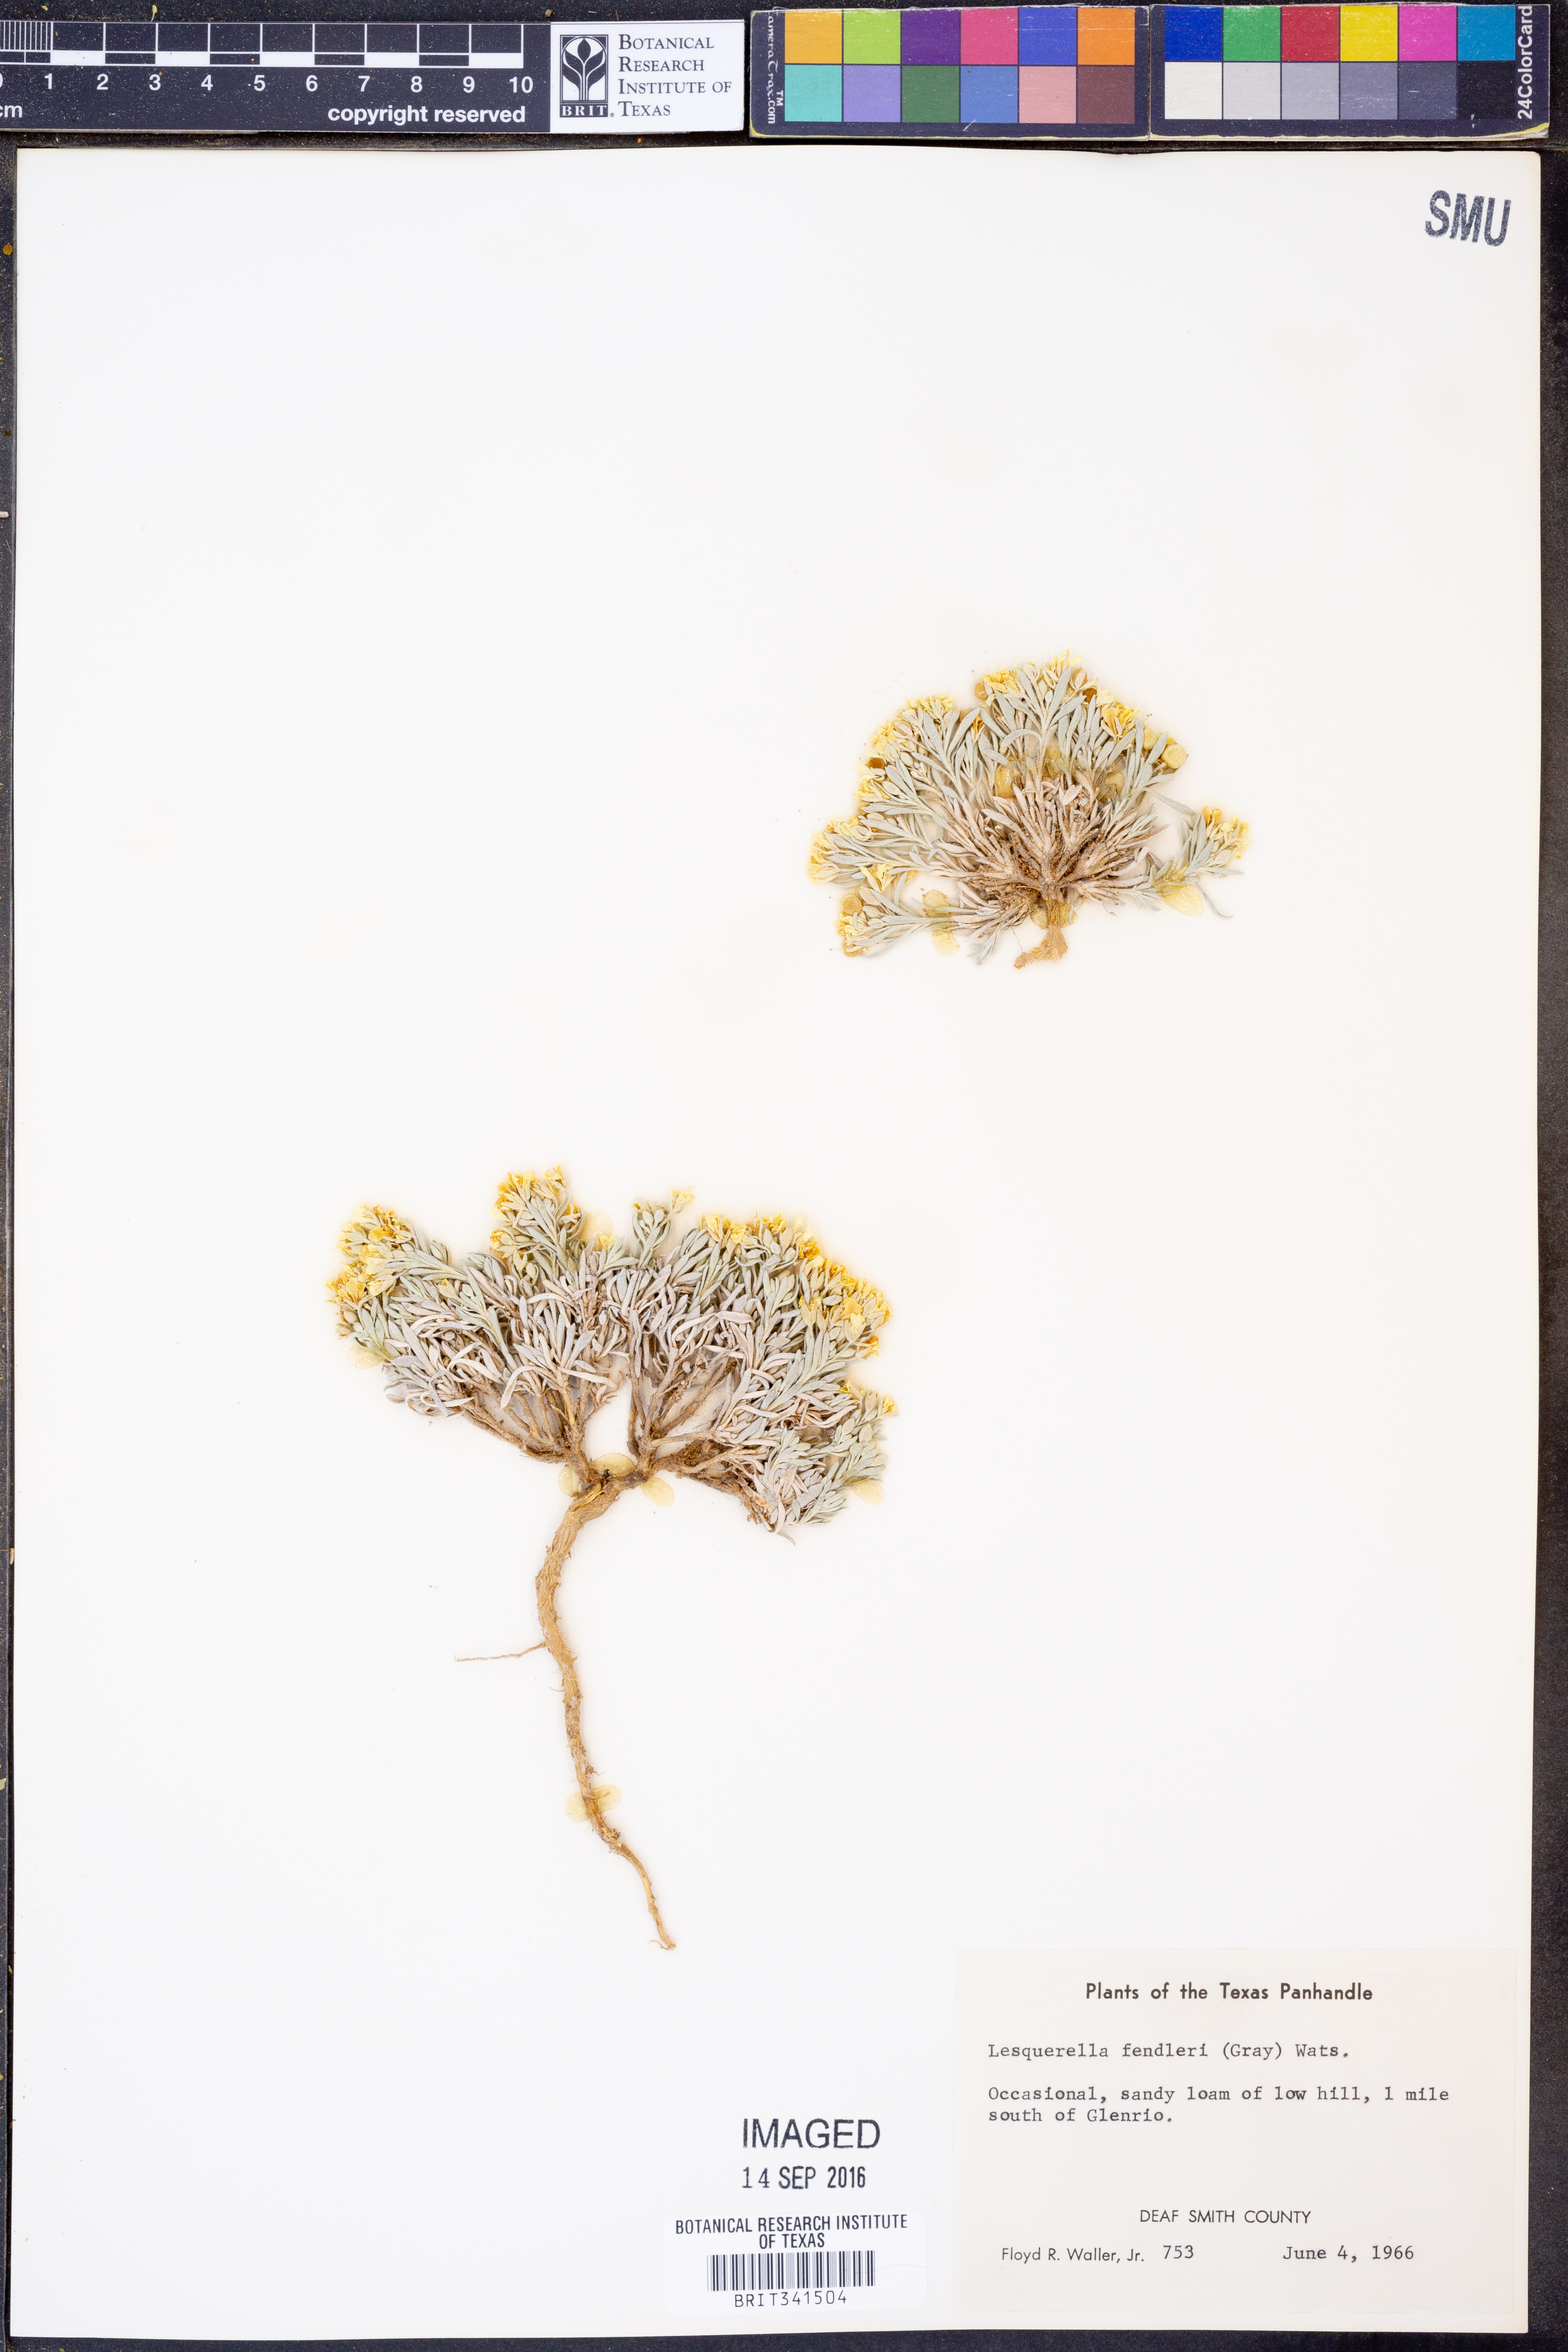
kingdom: Plantae
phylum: Tracheophyta
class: Magnoliopsida
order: Brassicales
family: Brassicaceae
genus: Physaria
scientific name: Physaria fendleri
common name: Fendler's bladderpod
